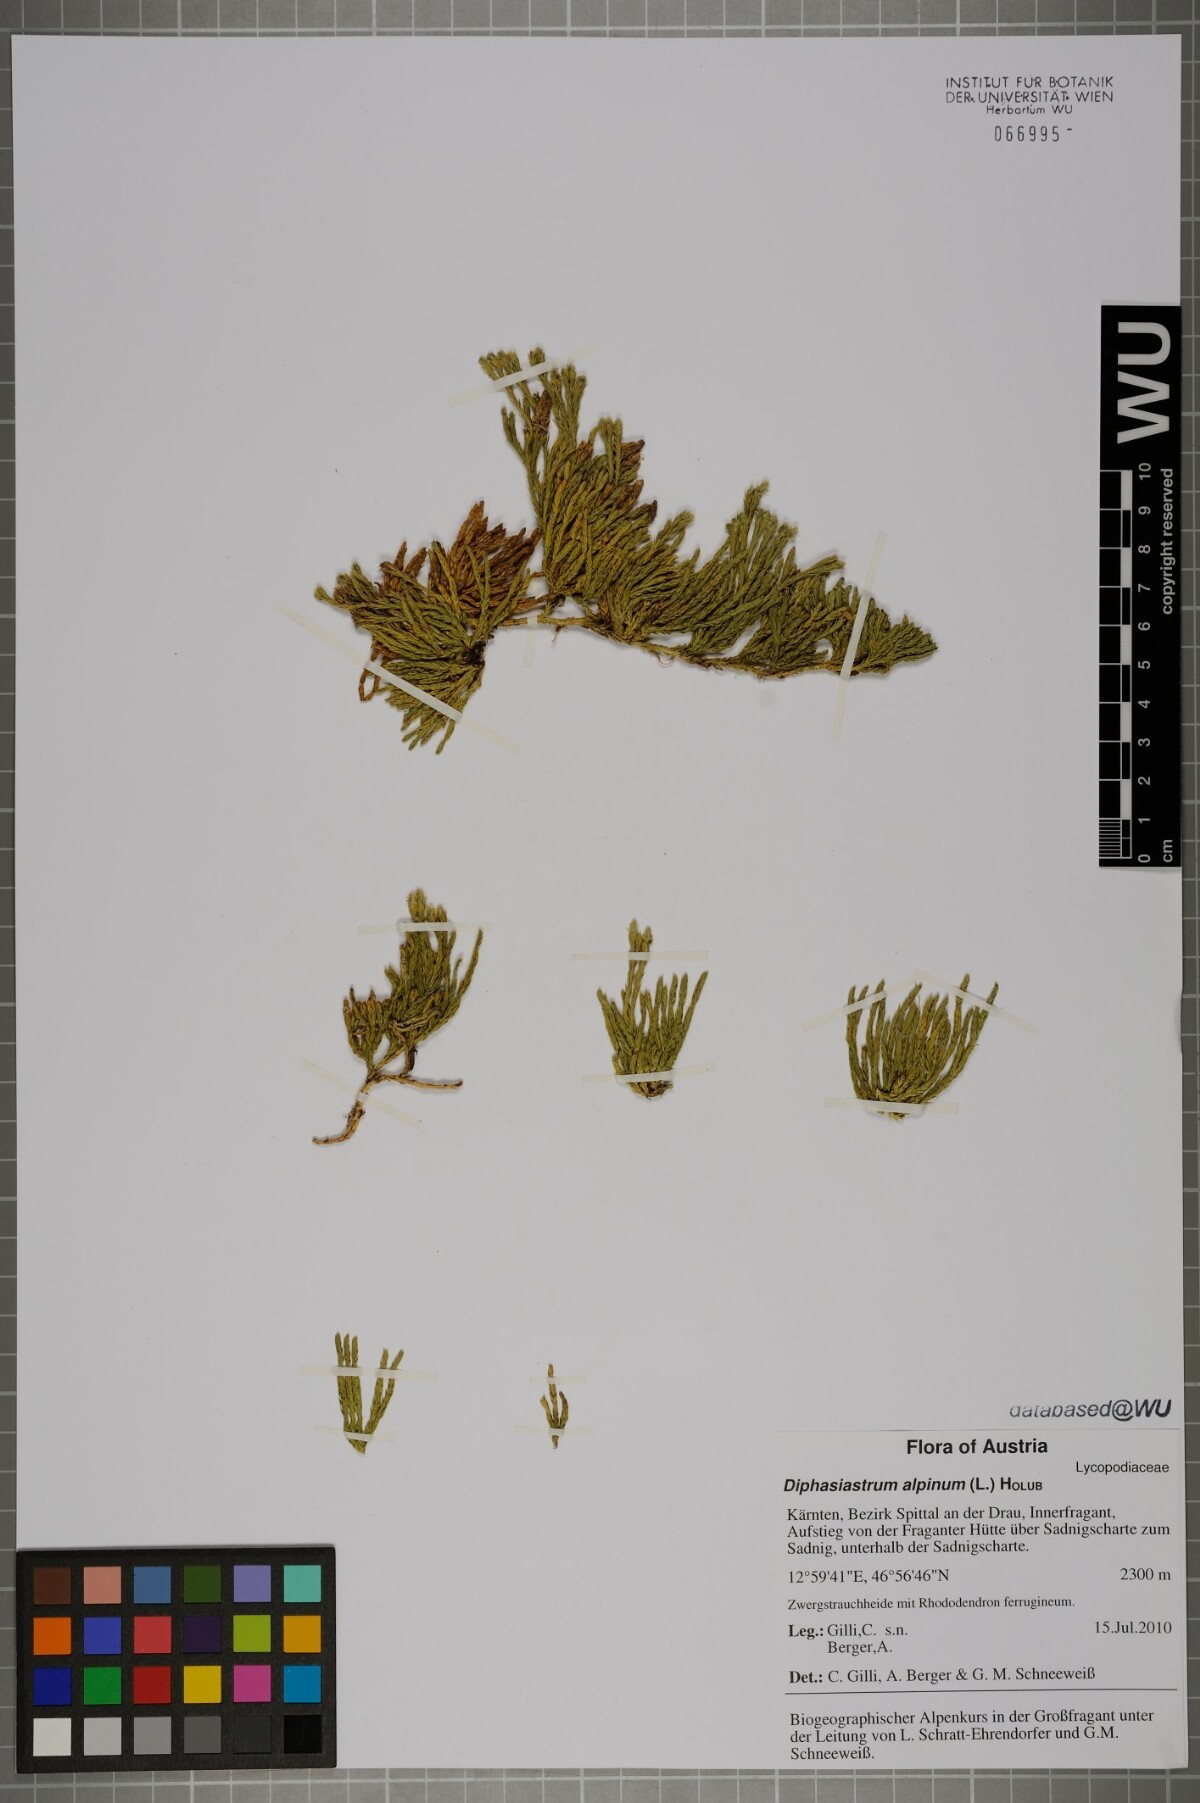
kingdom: Plantae
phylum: Tracheophyta
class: Lycopodiopsida
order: Lycopodiales
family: Lycopodiaceae
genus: Diphasiastrum
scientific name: Diphasiastrum alpinum
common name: Alpine clubmoss
